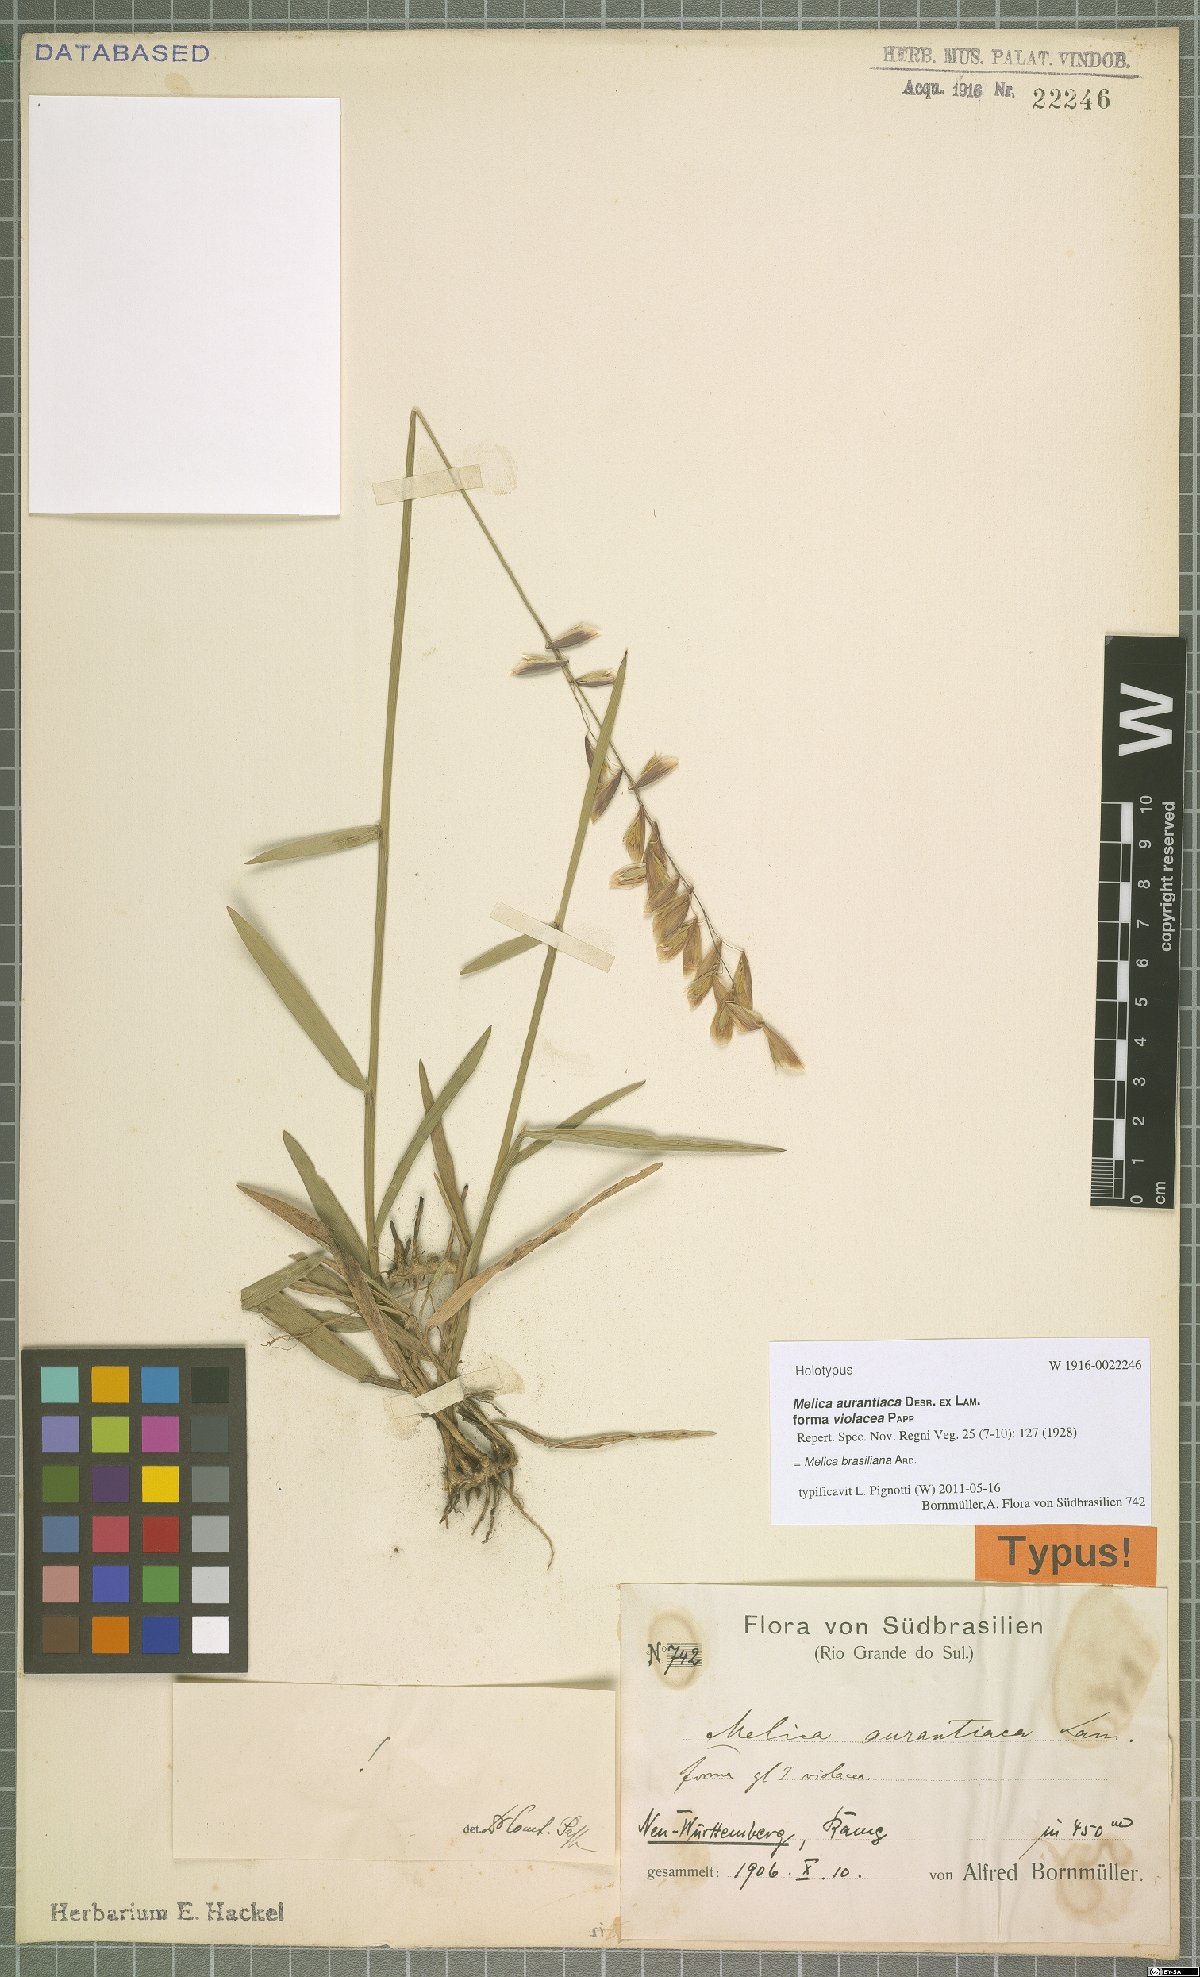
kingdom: Plantae
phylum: Tracheophyta
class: Liliopsida
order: Poales
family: Poaceae
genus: Melica
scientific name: Melica brasiliana
